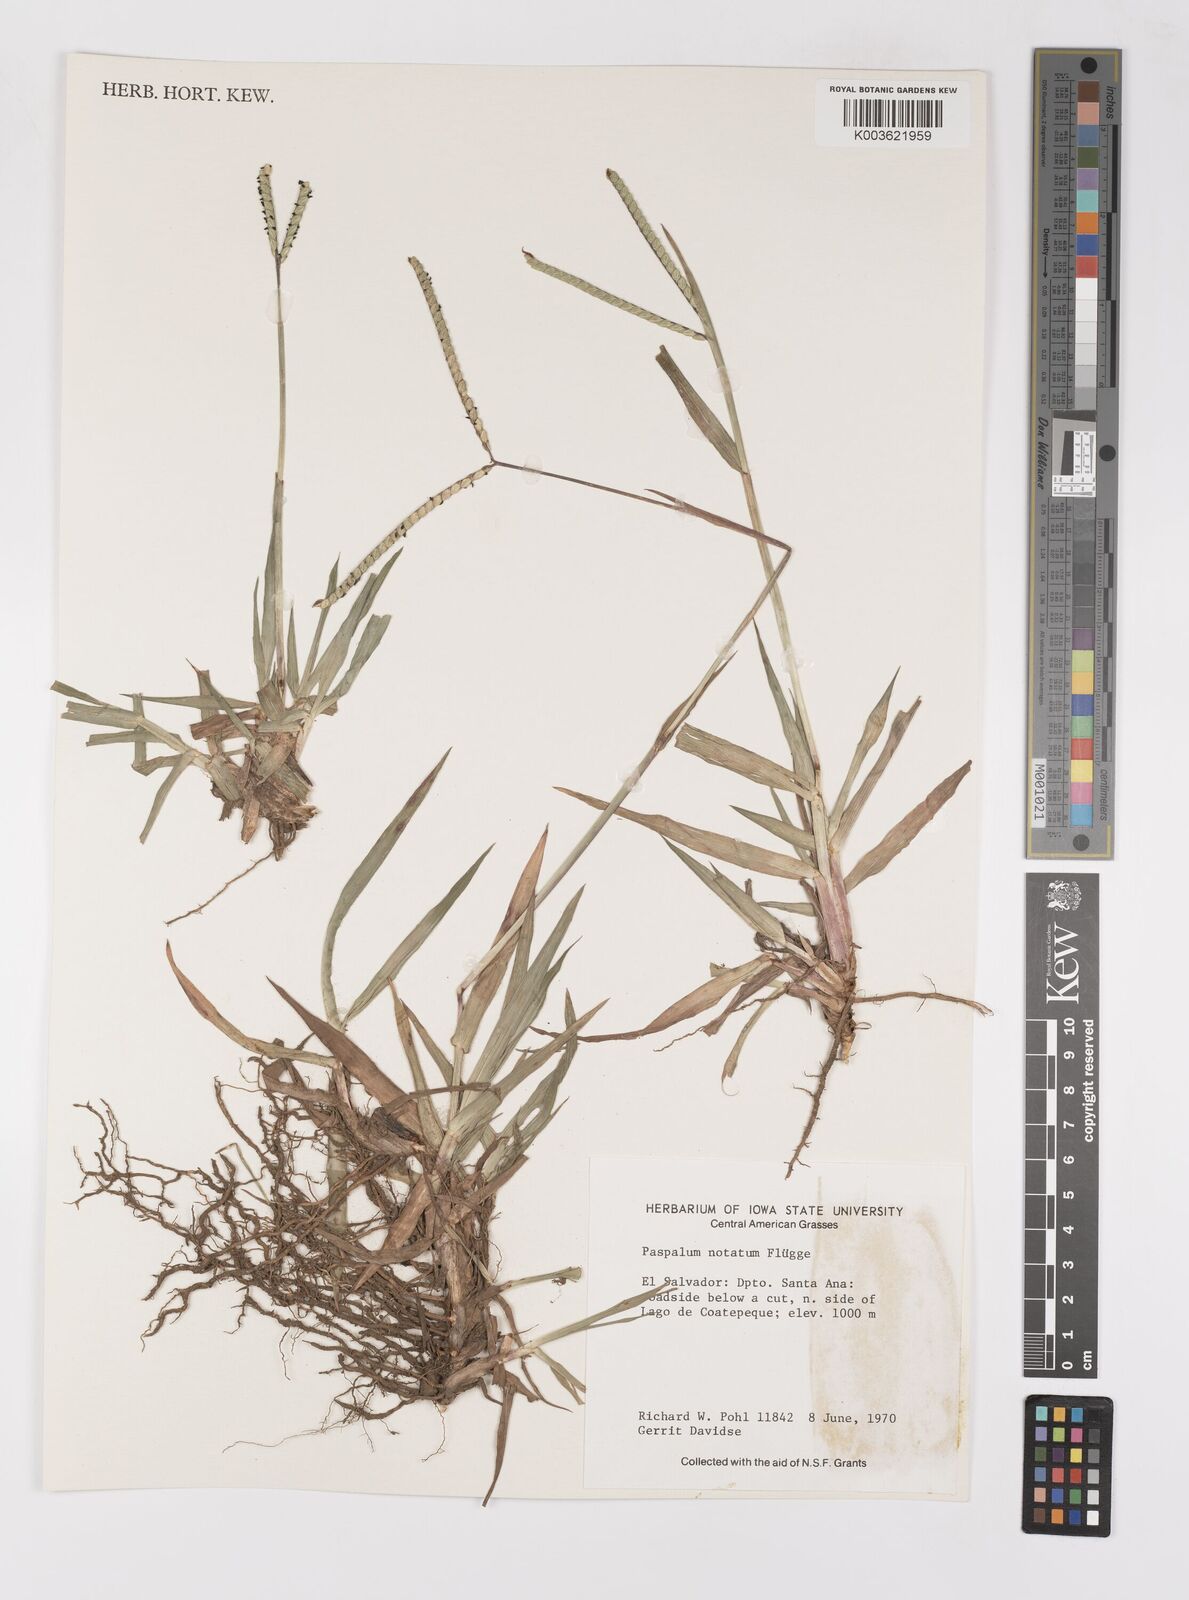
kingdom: Plantae
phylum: Tracheophyta
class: Liliopsida
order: Poales
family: Poaceae
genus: Paspalum
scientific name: Paspalum notatum
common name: Bahiagrass
